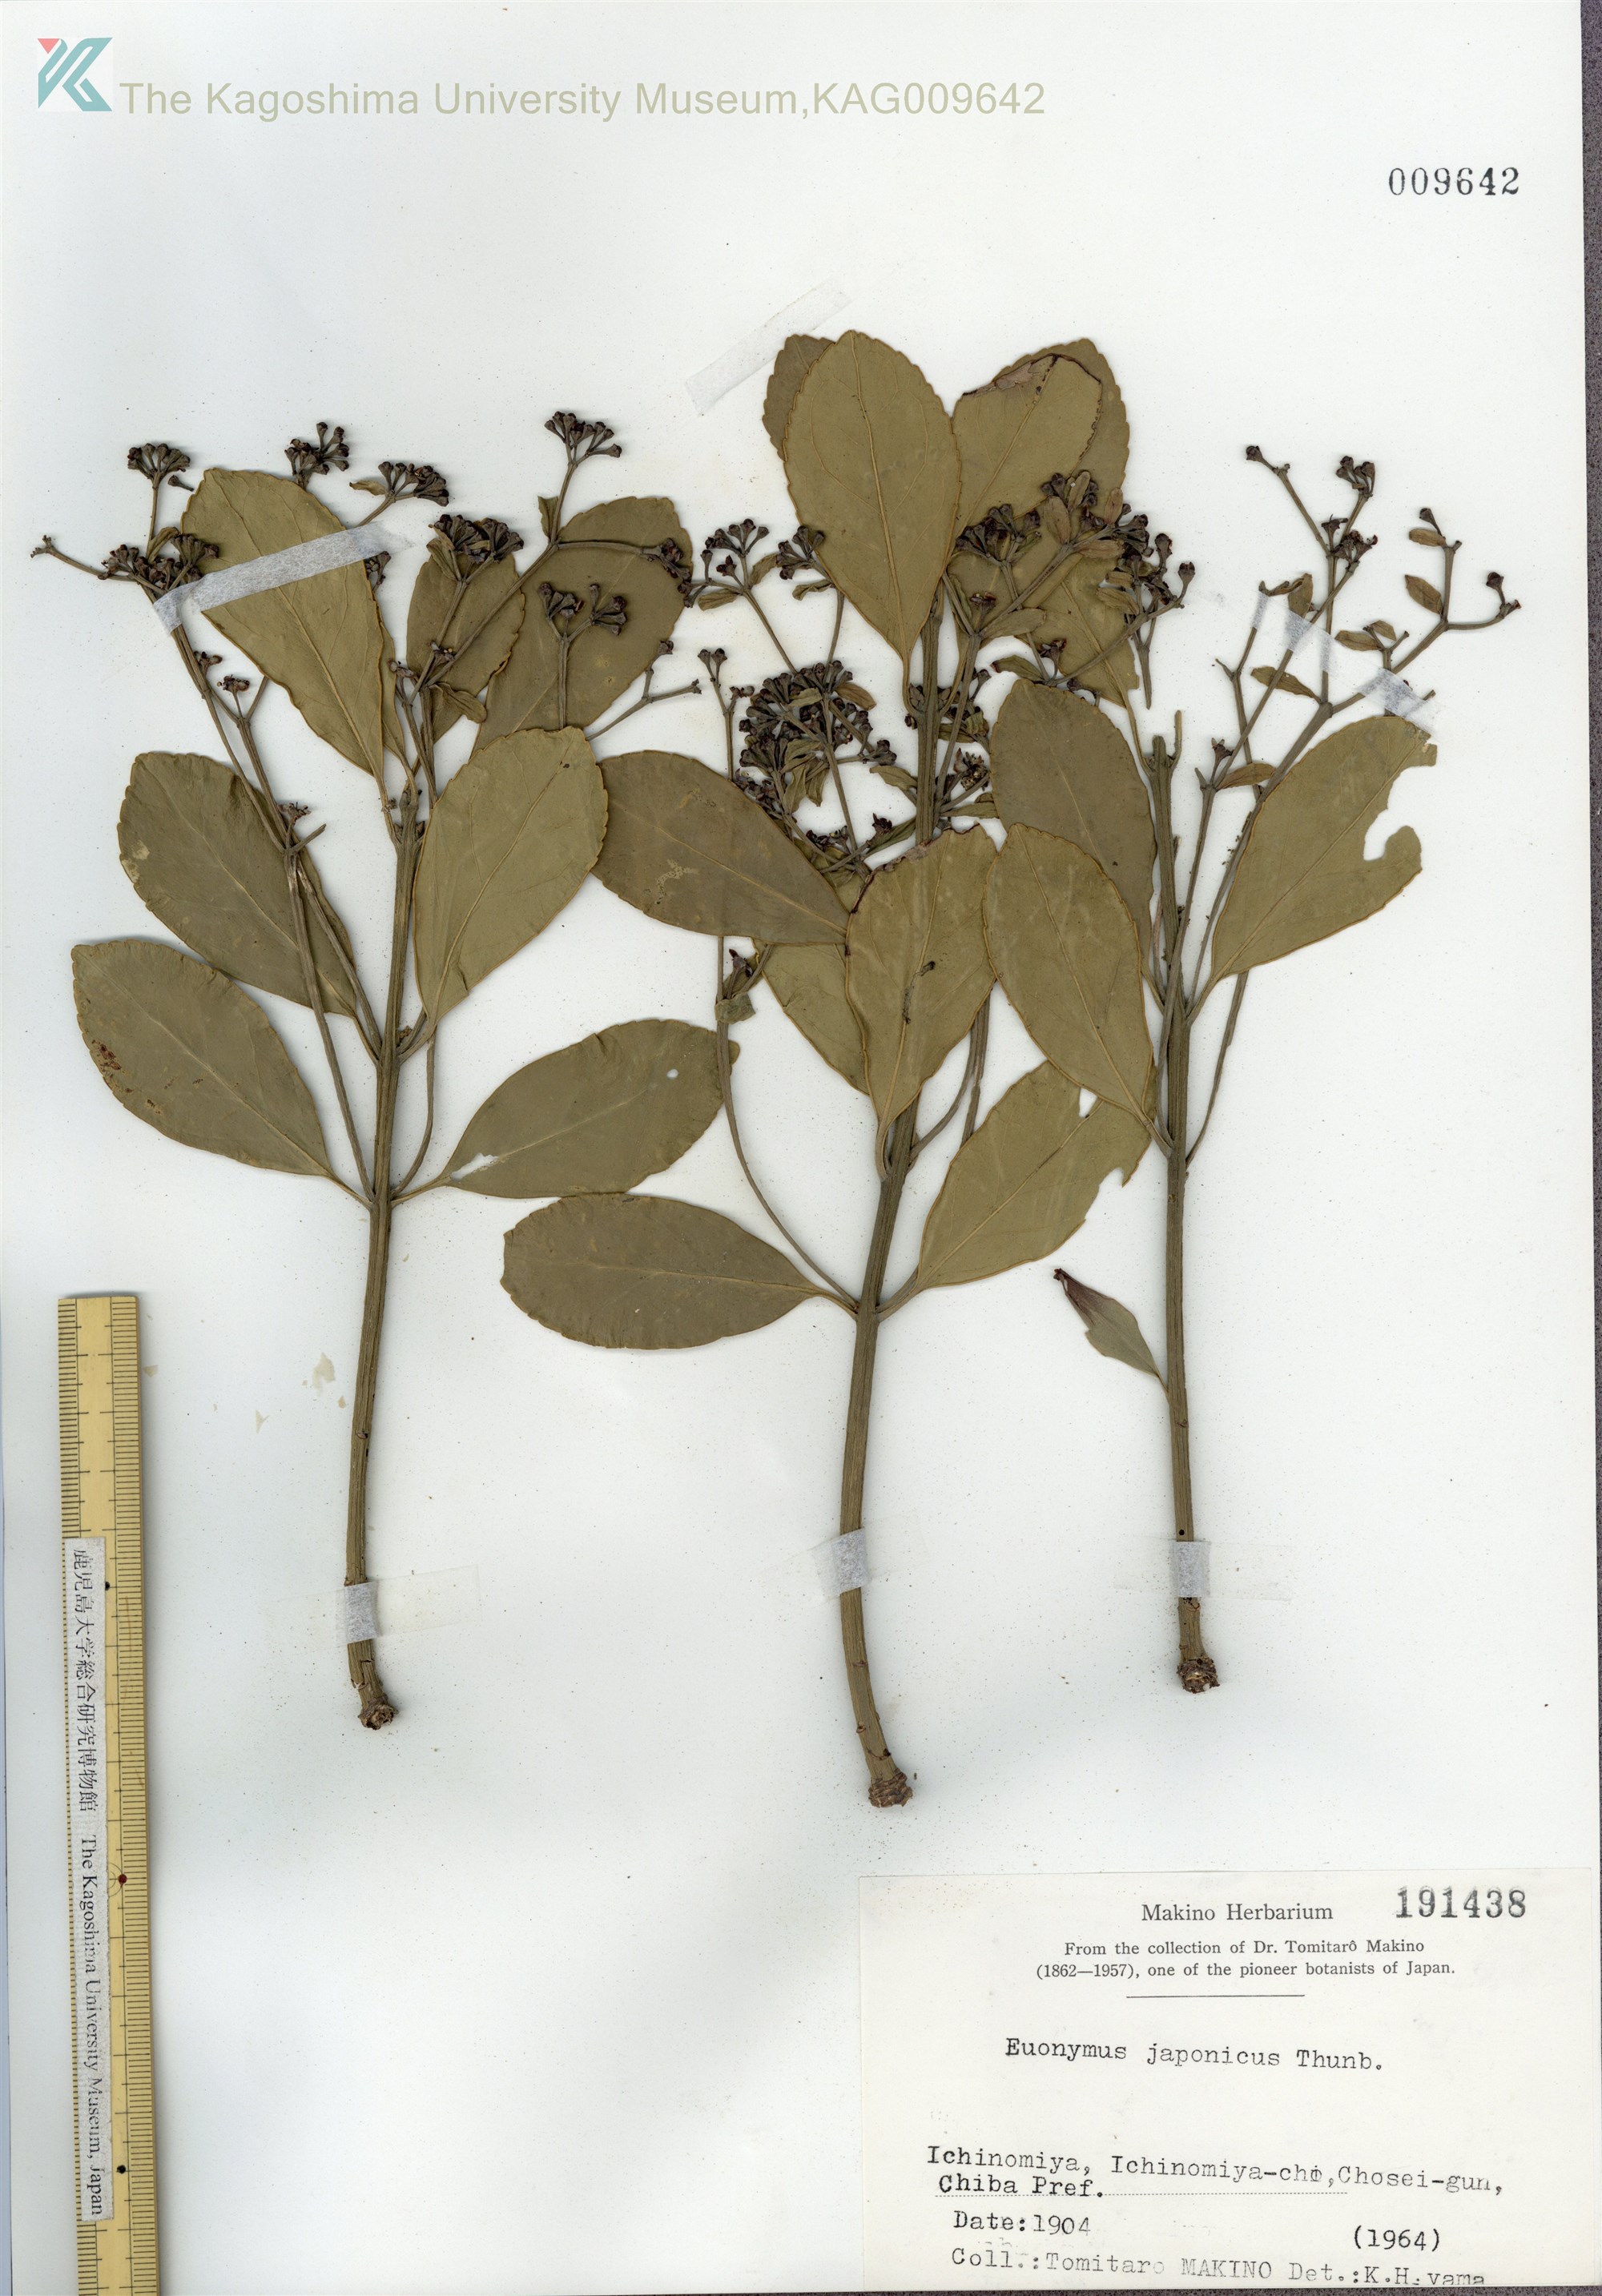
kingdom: Plantae
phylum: Tracheophyta
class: Magnoliopsida
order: Celastrales
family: Celastraceae
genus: Euonymus
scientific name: Euonymus japonicus
